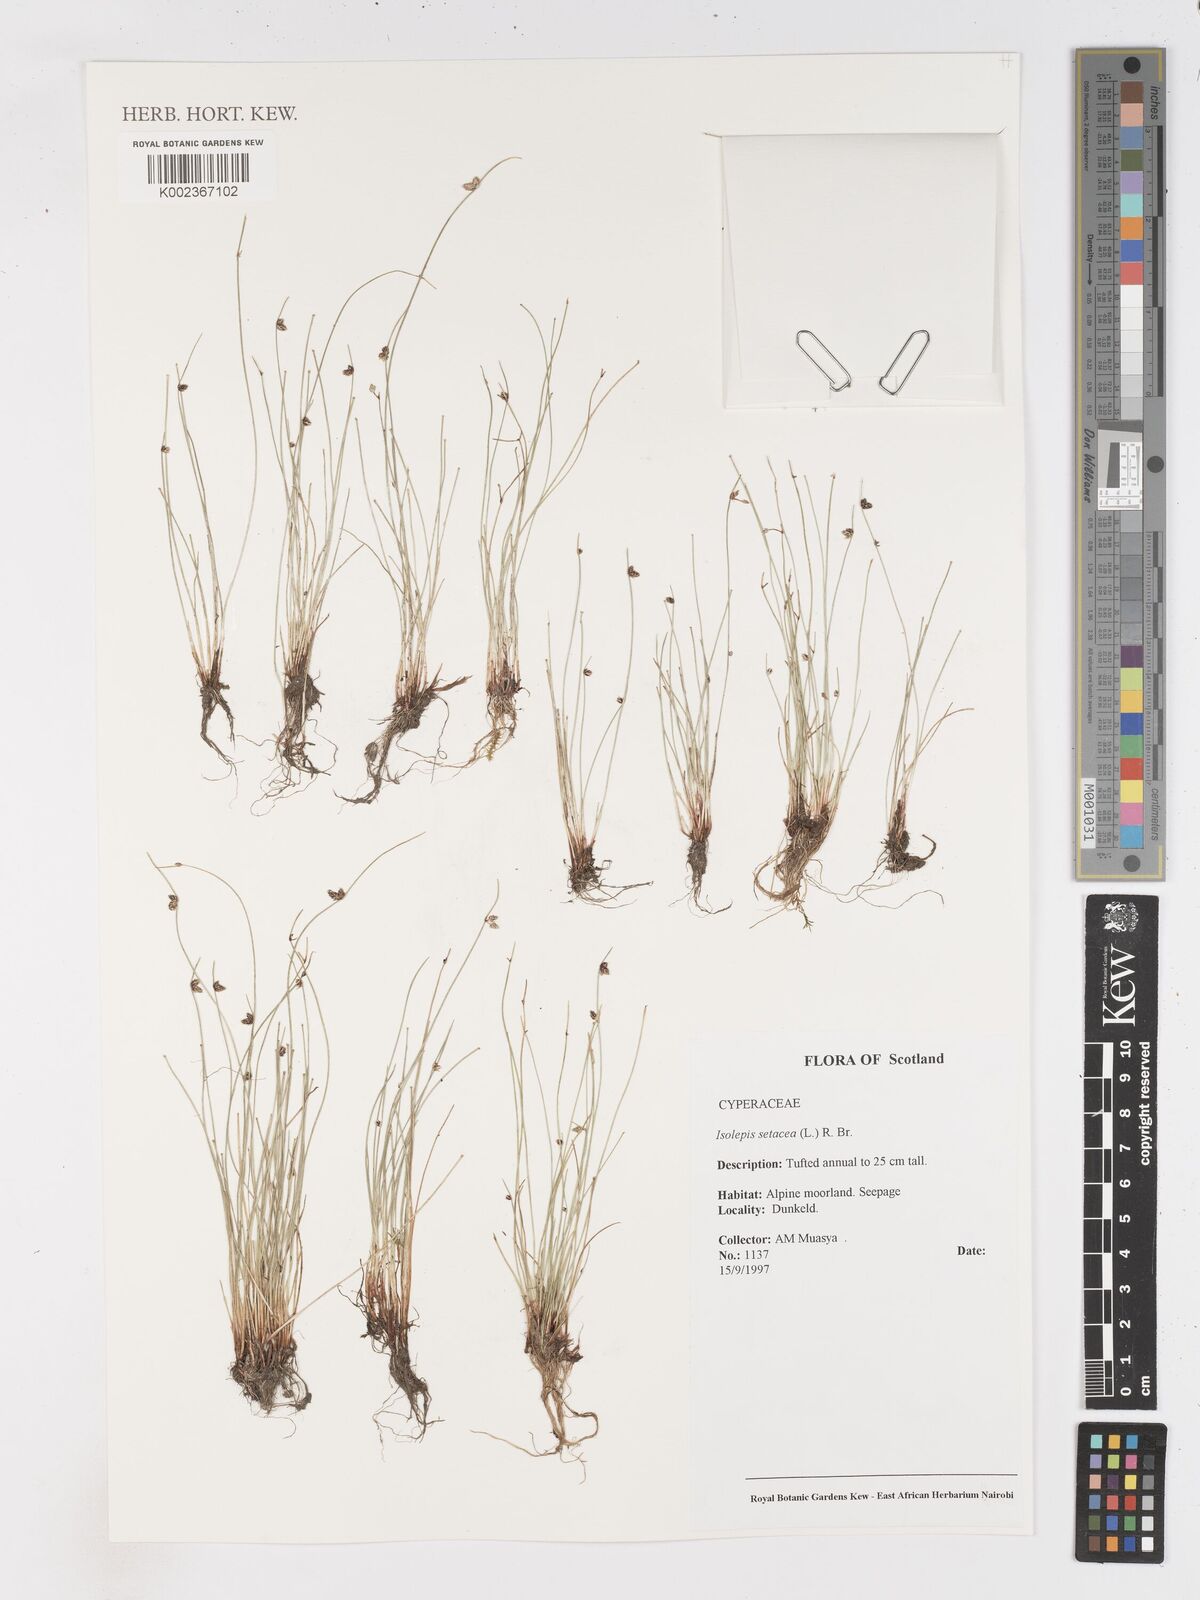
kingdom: Plantae
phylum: Tracheophyta
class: Liliopsida
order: Poales
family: Cyperaceae
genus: Isolepis
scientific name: Isolepis setacea
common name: Bristle club-rush
